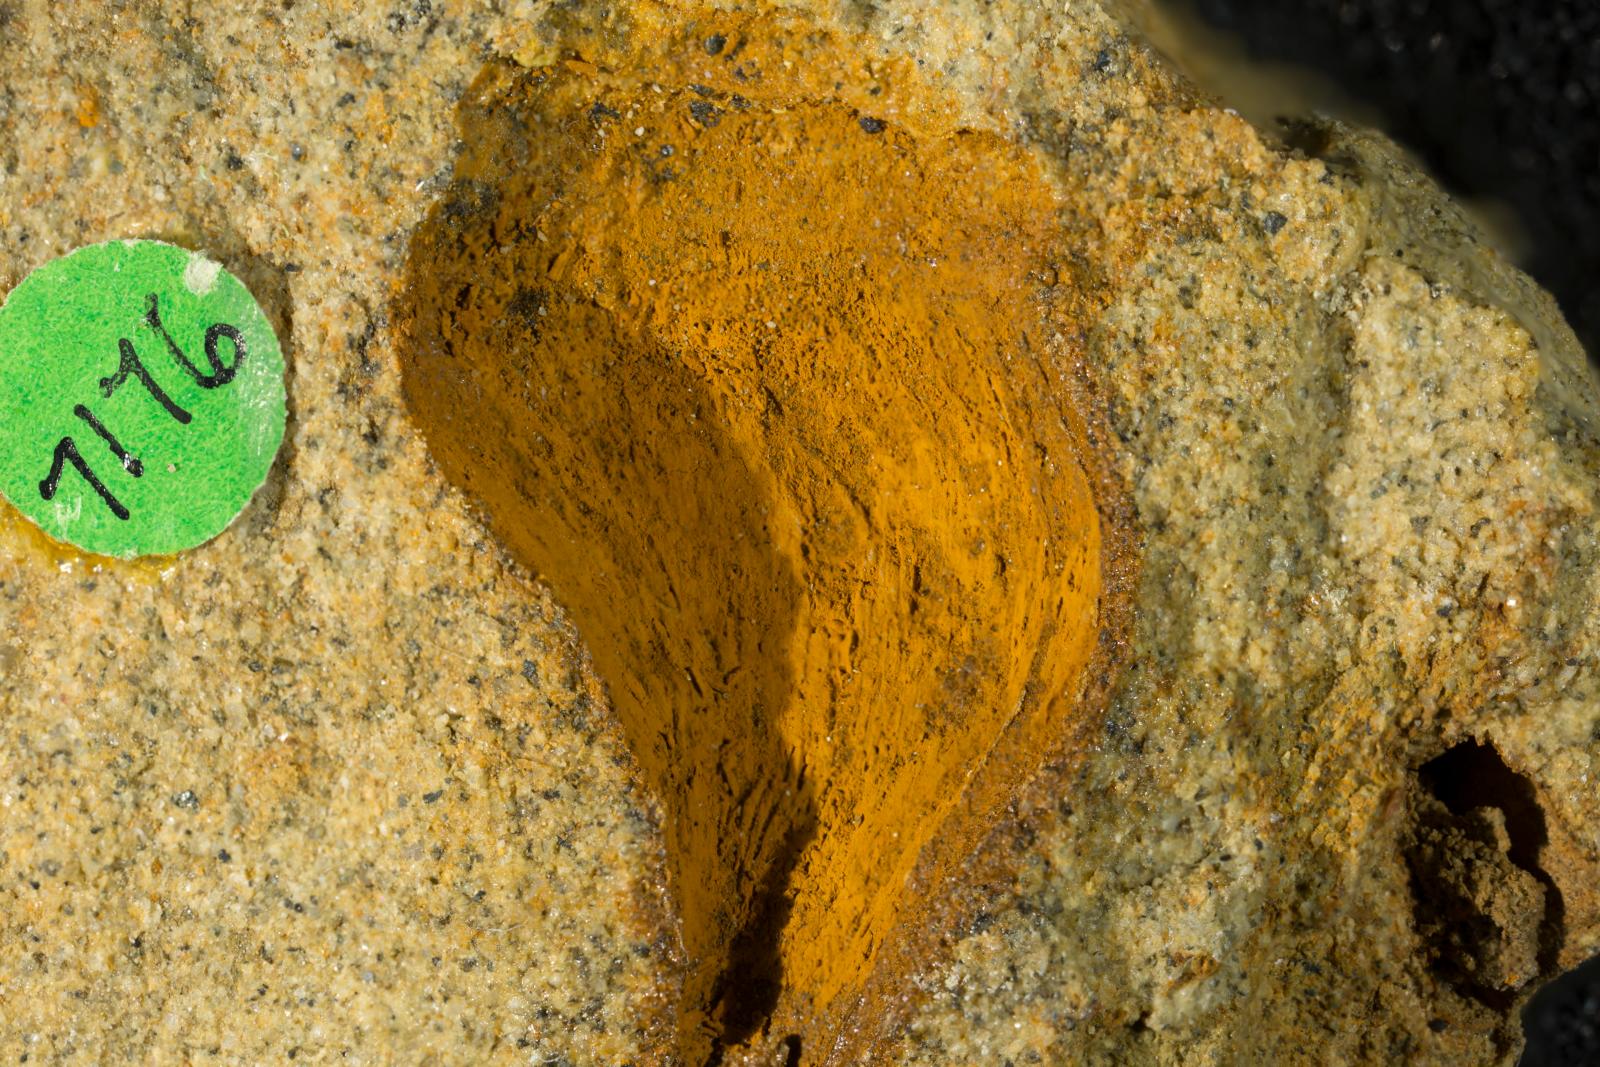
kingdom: Animalia
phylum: Mollusca
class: Gastropoda
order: Neogastropoda
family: Buccinidae
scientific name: Buccinidae
